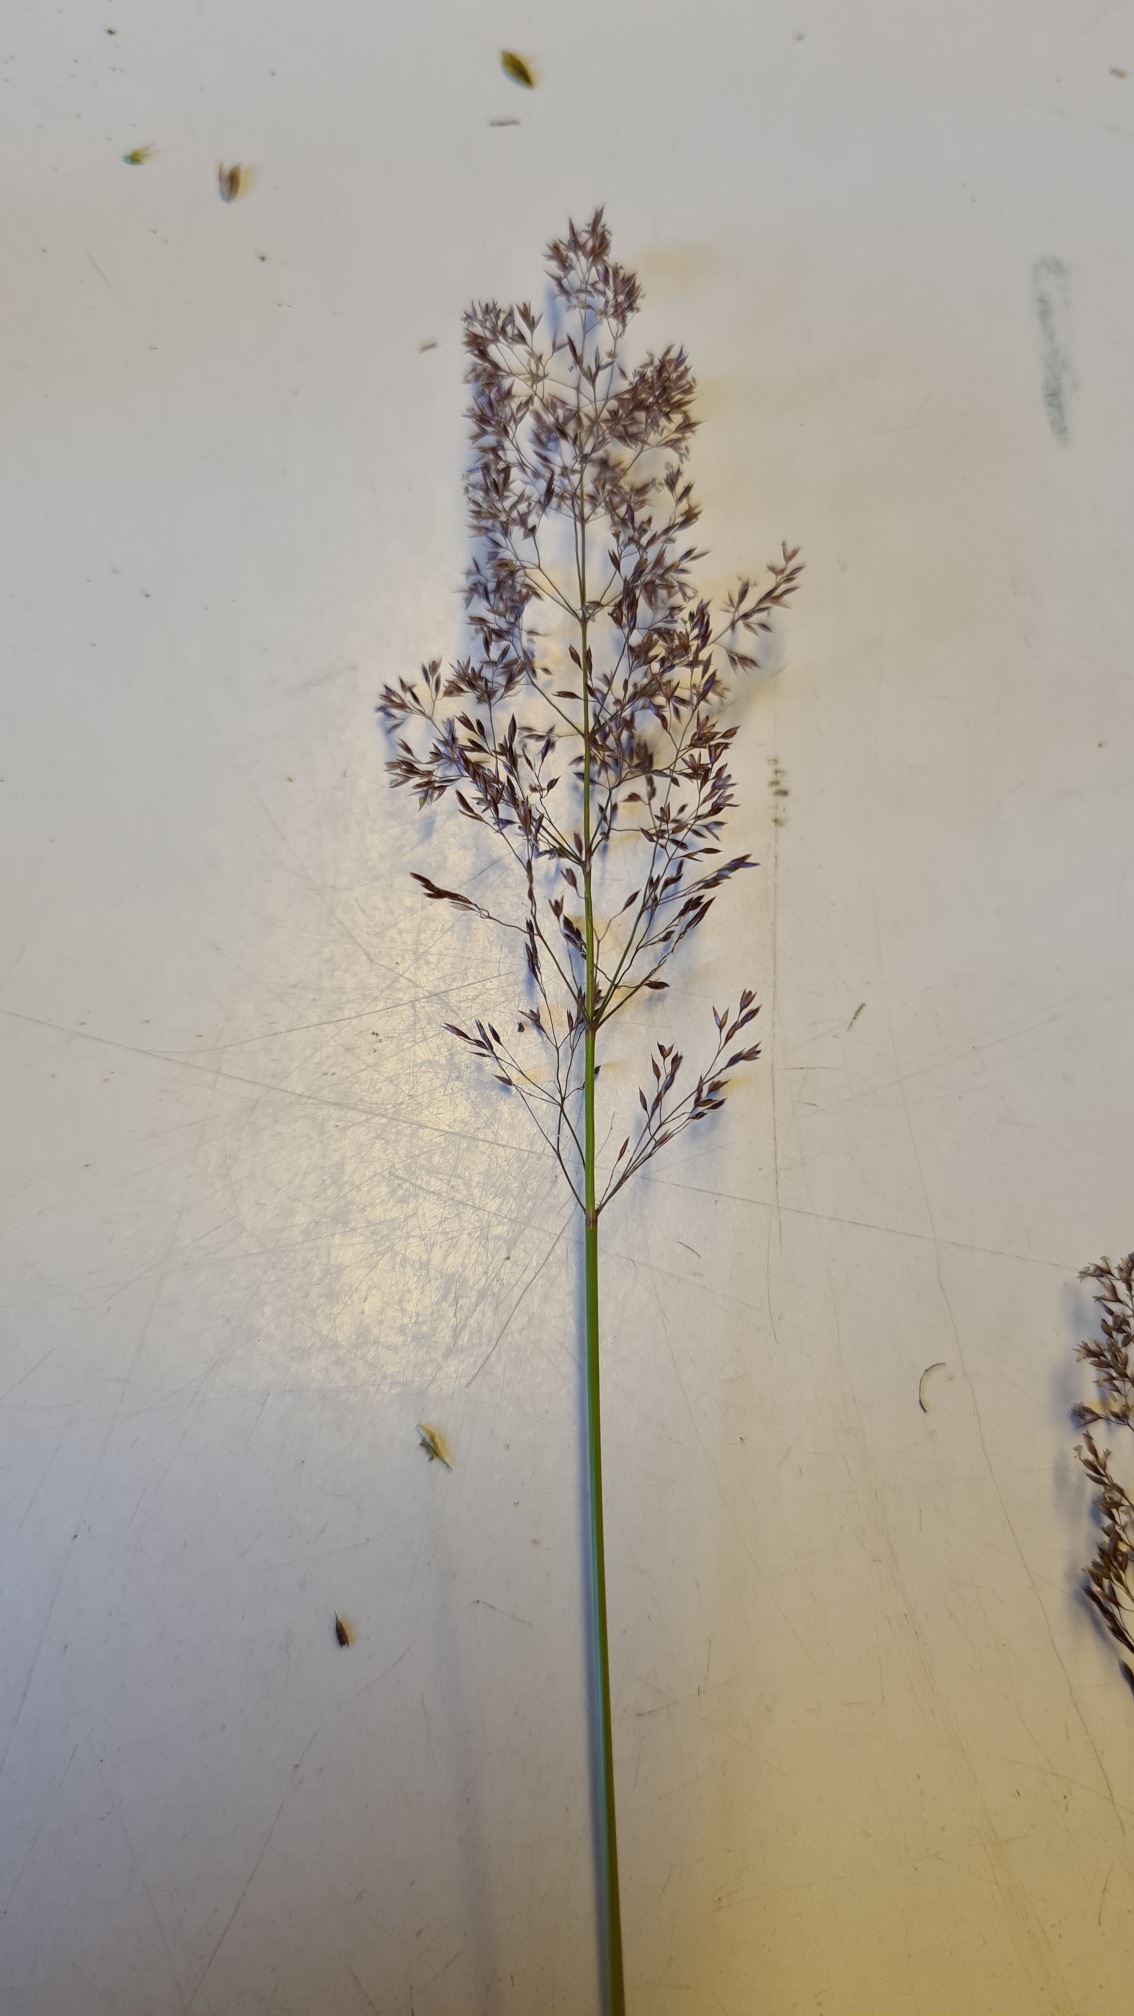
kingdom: Plantae
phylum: Tracheophyta
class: Liliopsida
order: Poales
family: Poaceae
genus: Agrostis
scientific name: Agrostis capillaris
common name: Almindelig hvene
